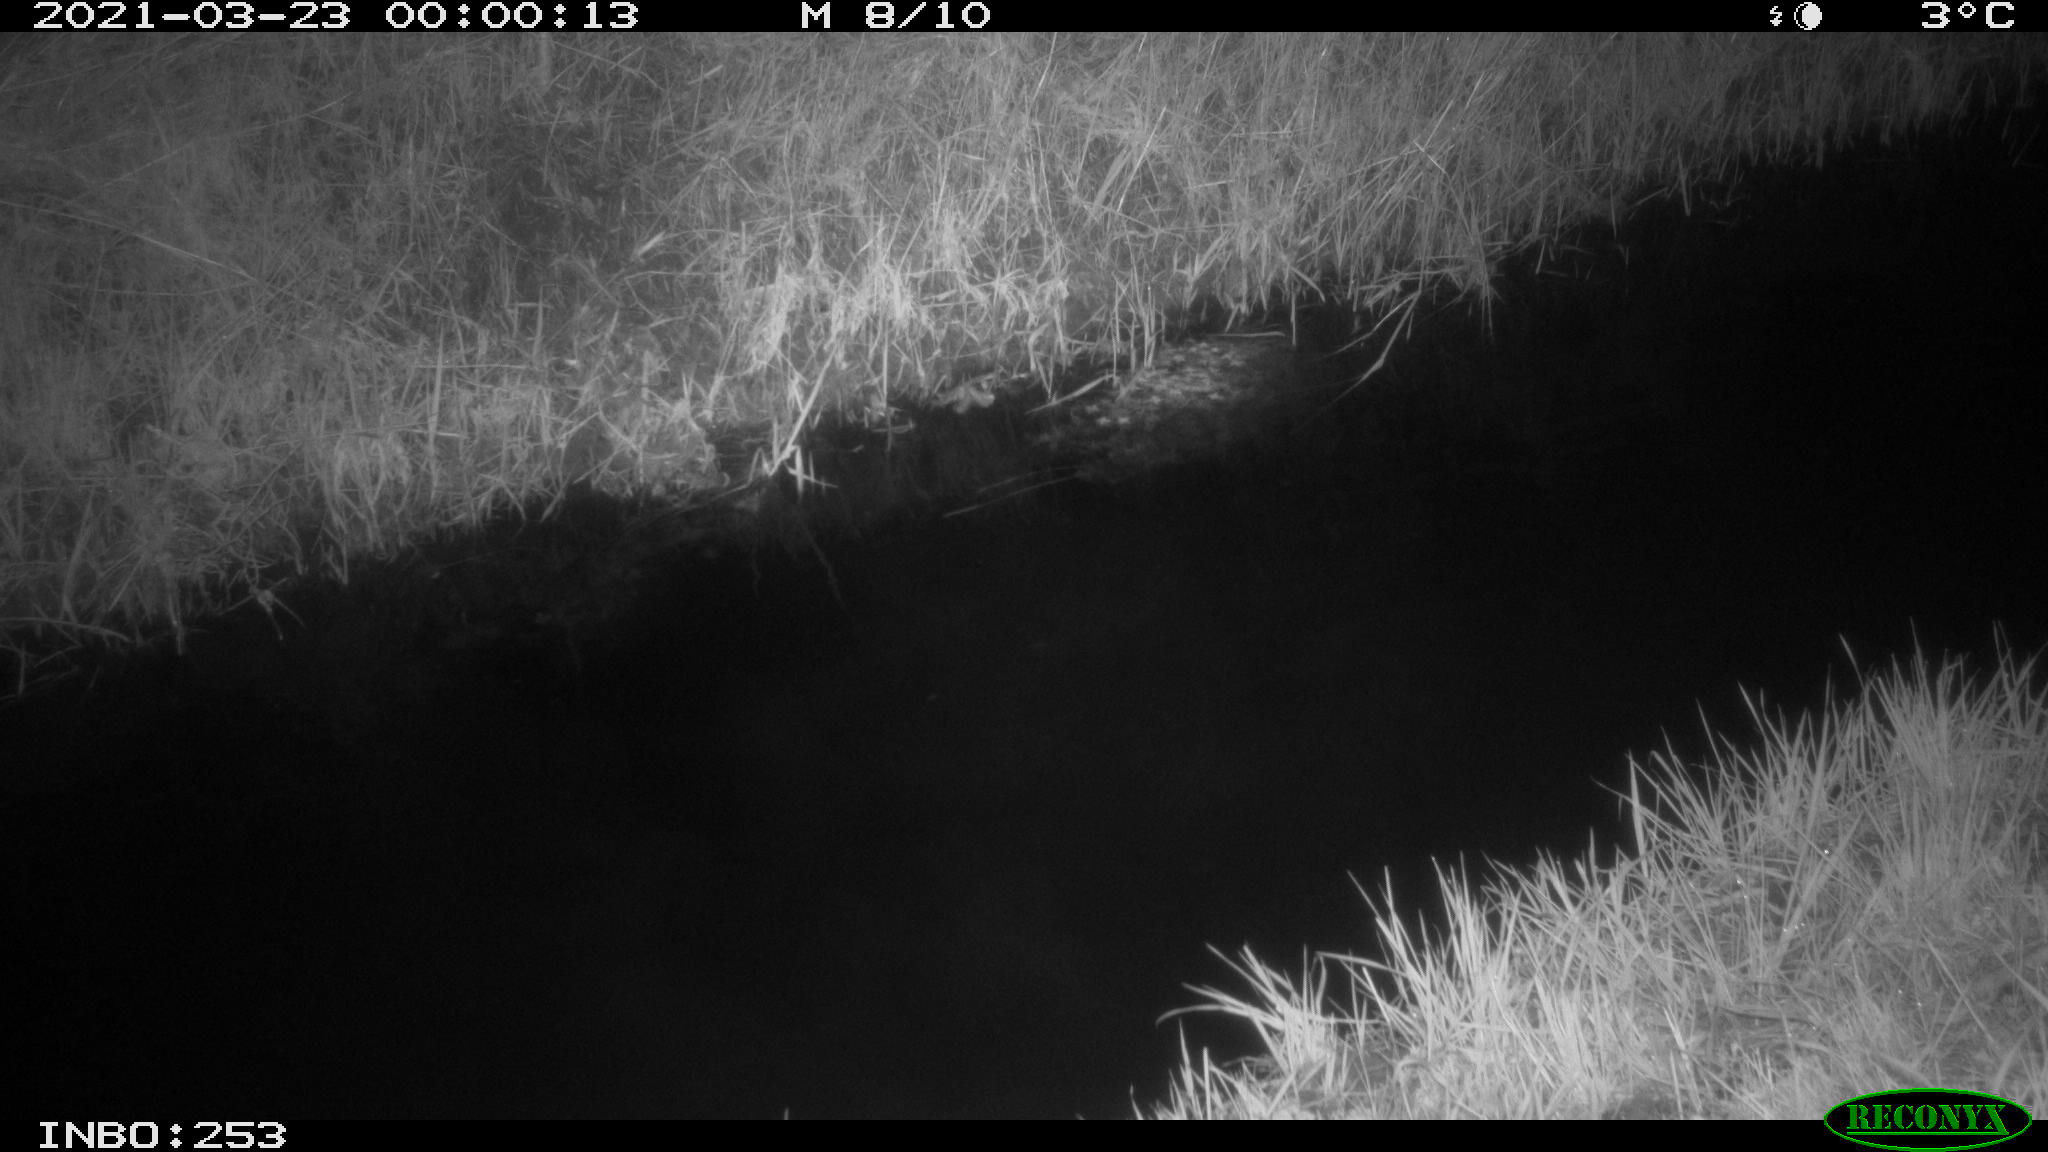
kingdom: Animalia
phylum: Chordata
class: Aves
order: Anseriformes
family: Anatidae
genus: Anas
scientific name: Anas platyrhynchos
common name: Mallard
